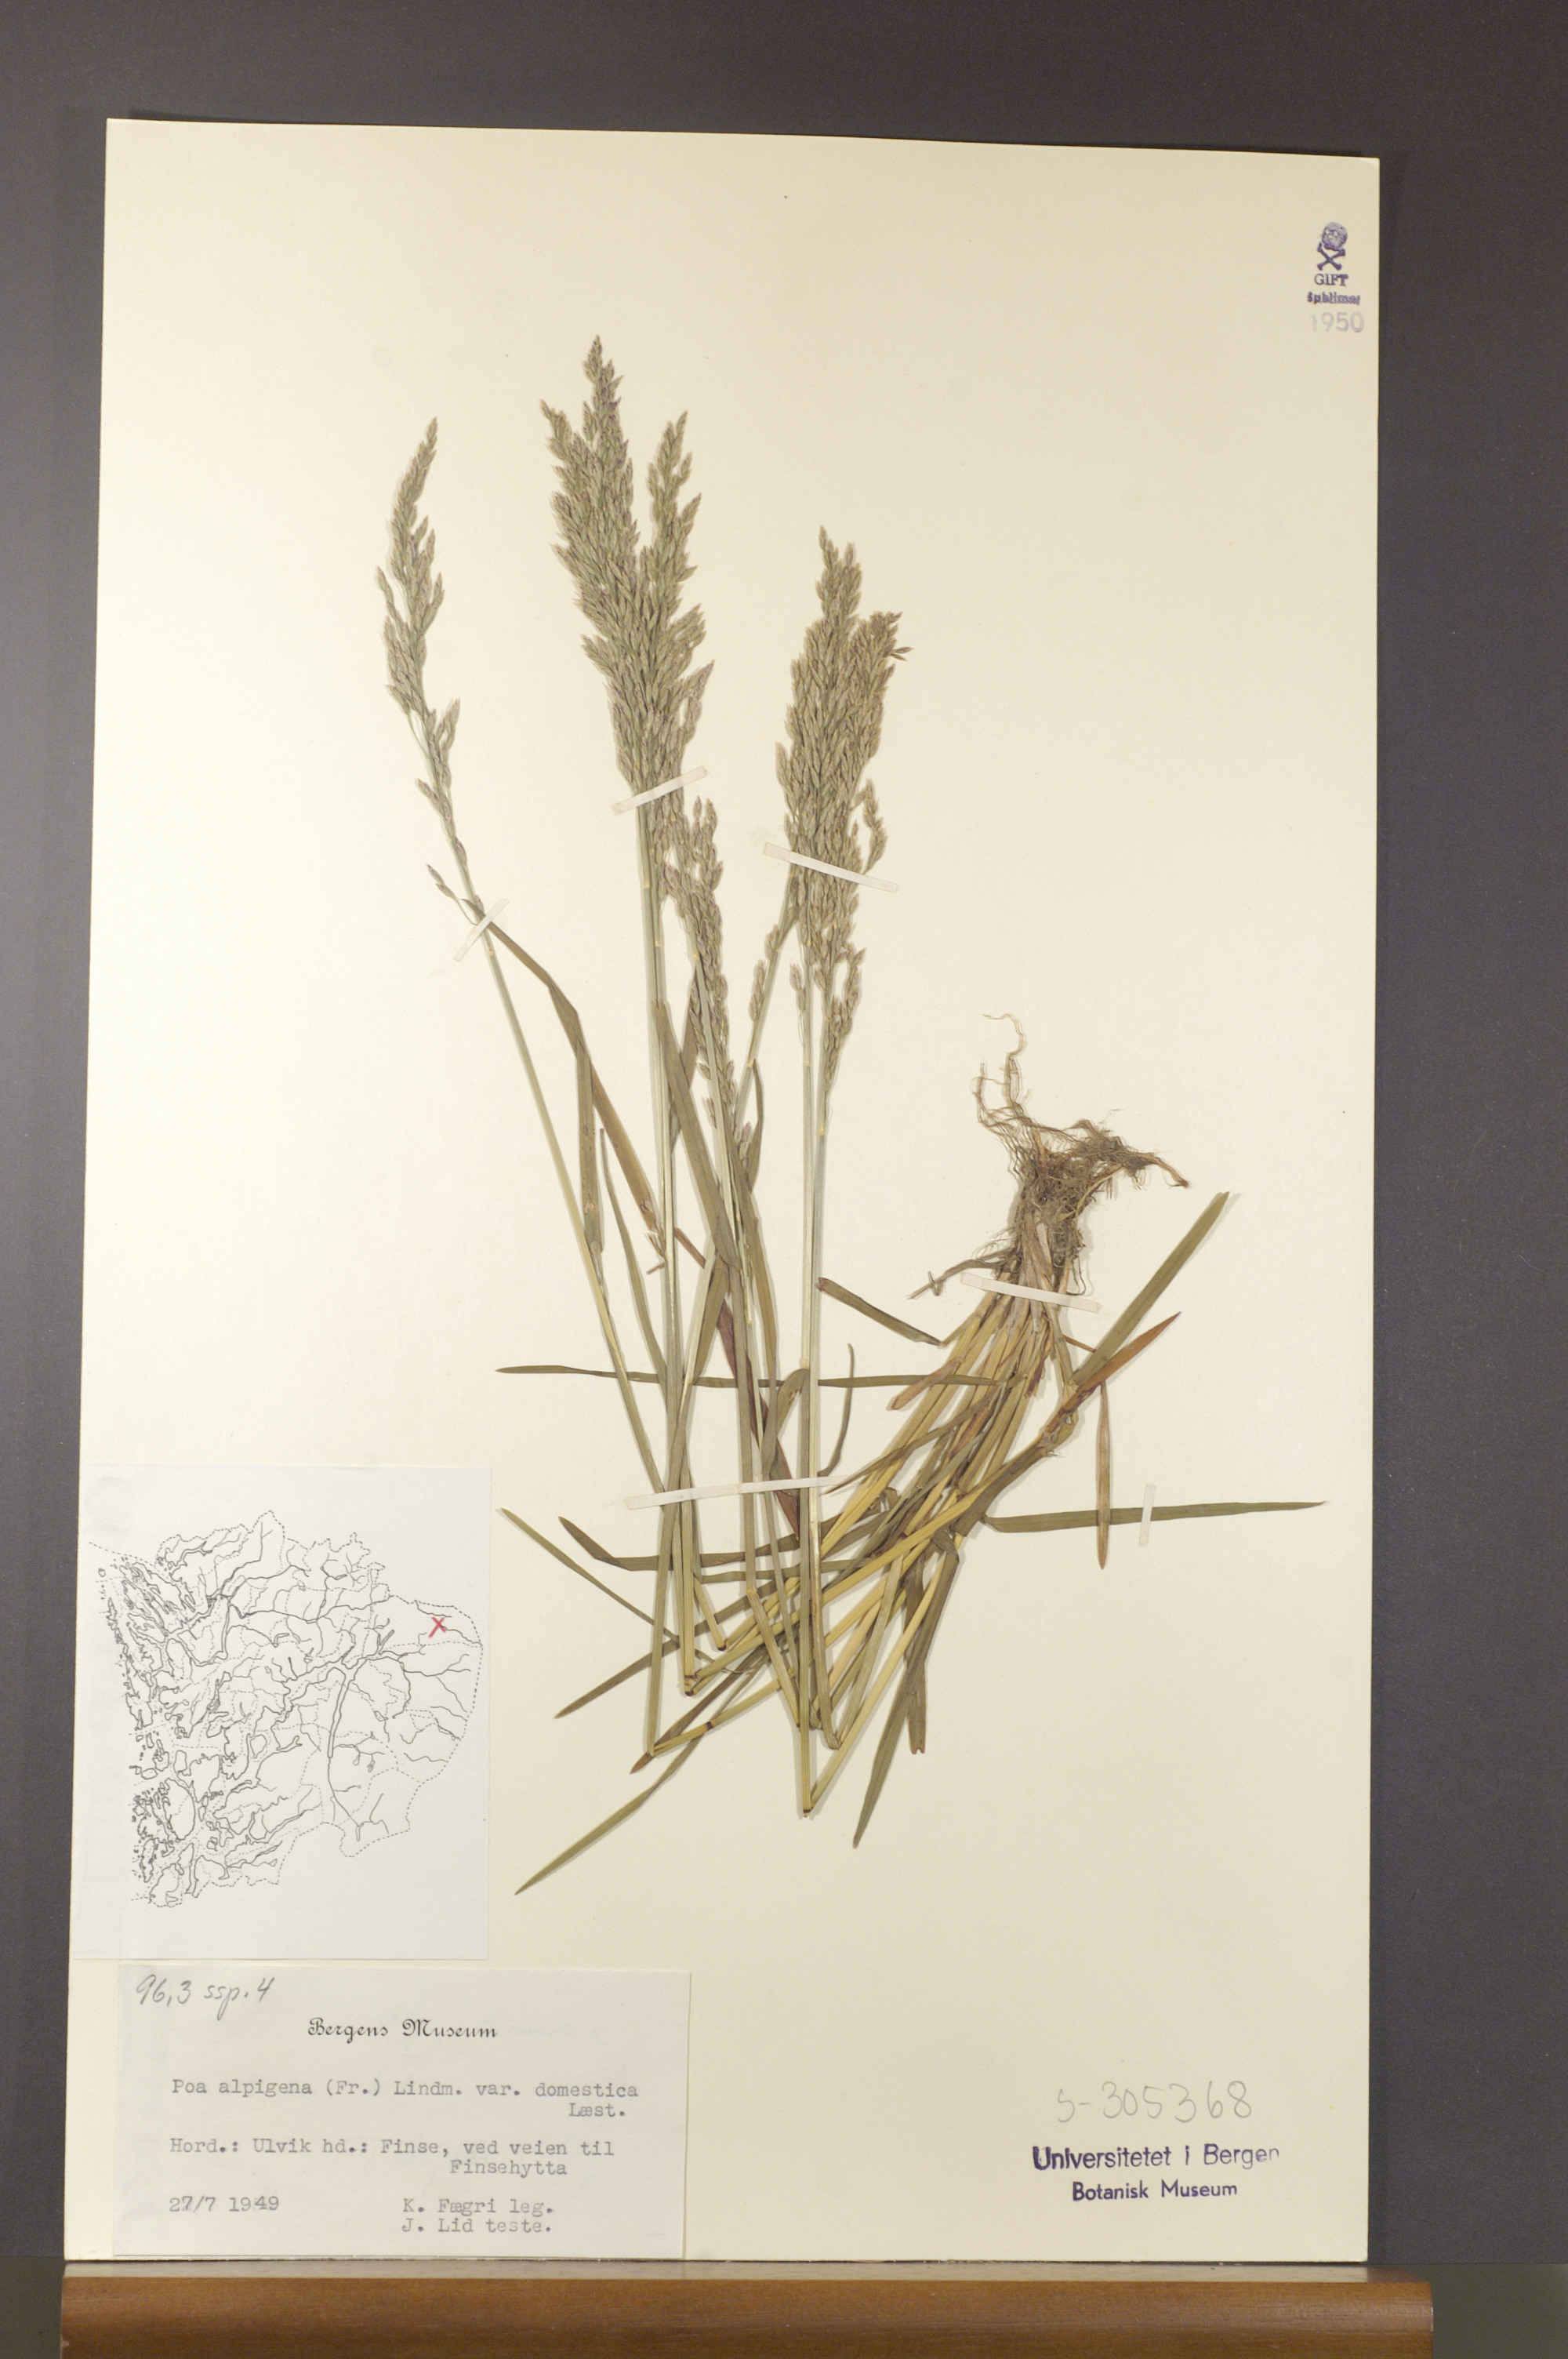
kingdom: Plantae
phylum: Tracheophyta
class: Liliopsida
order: Poales
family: Poaceae
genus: Poa
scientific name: Poa pratensis
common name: Kentucky bluegrass
